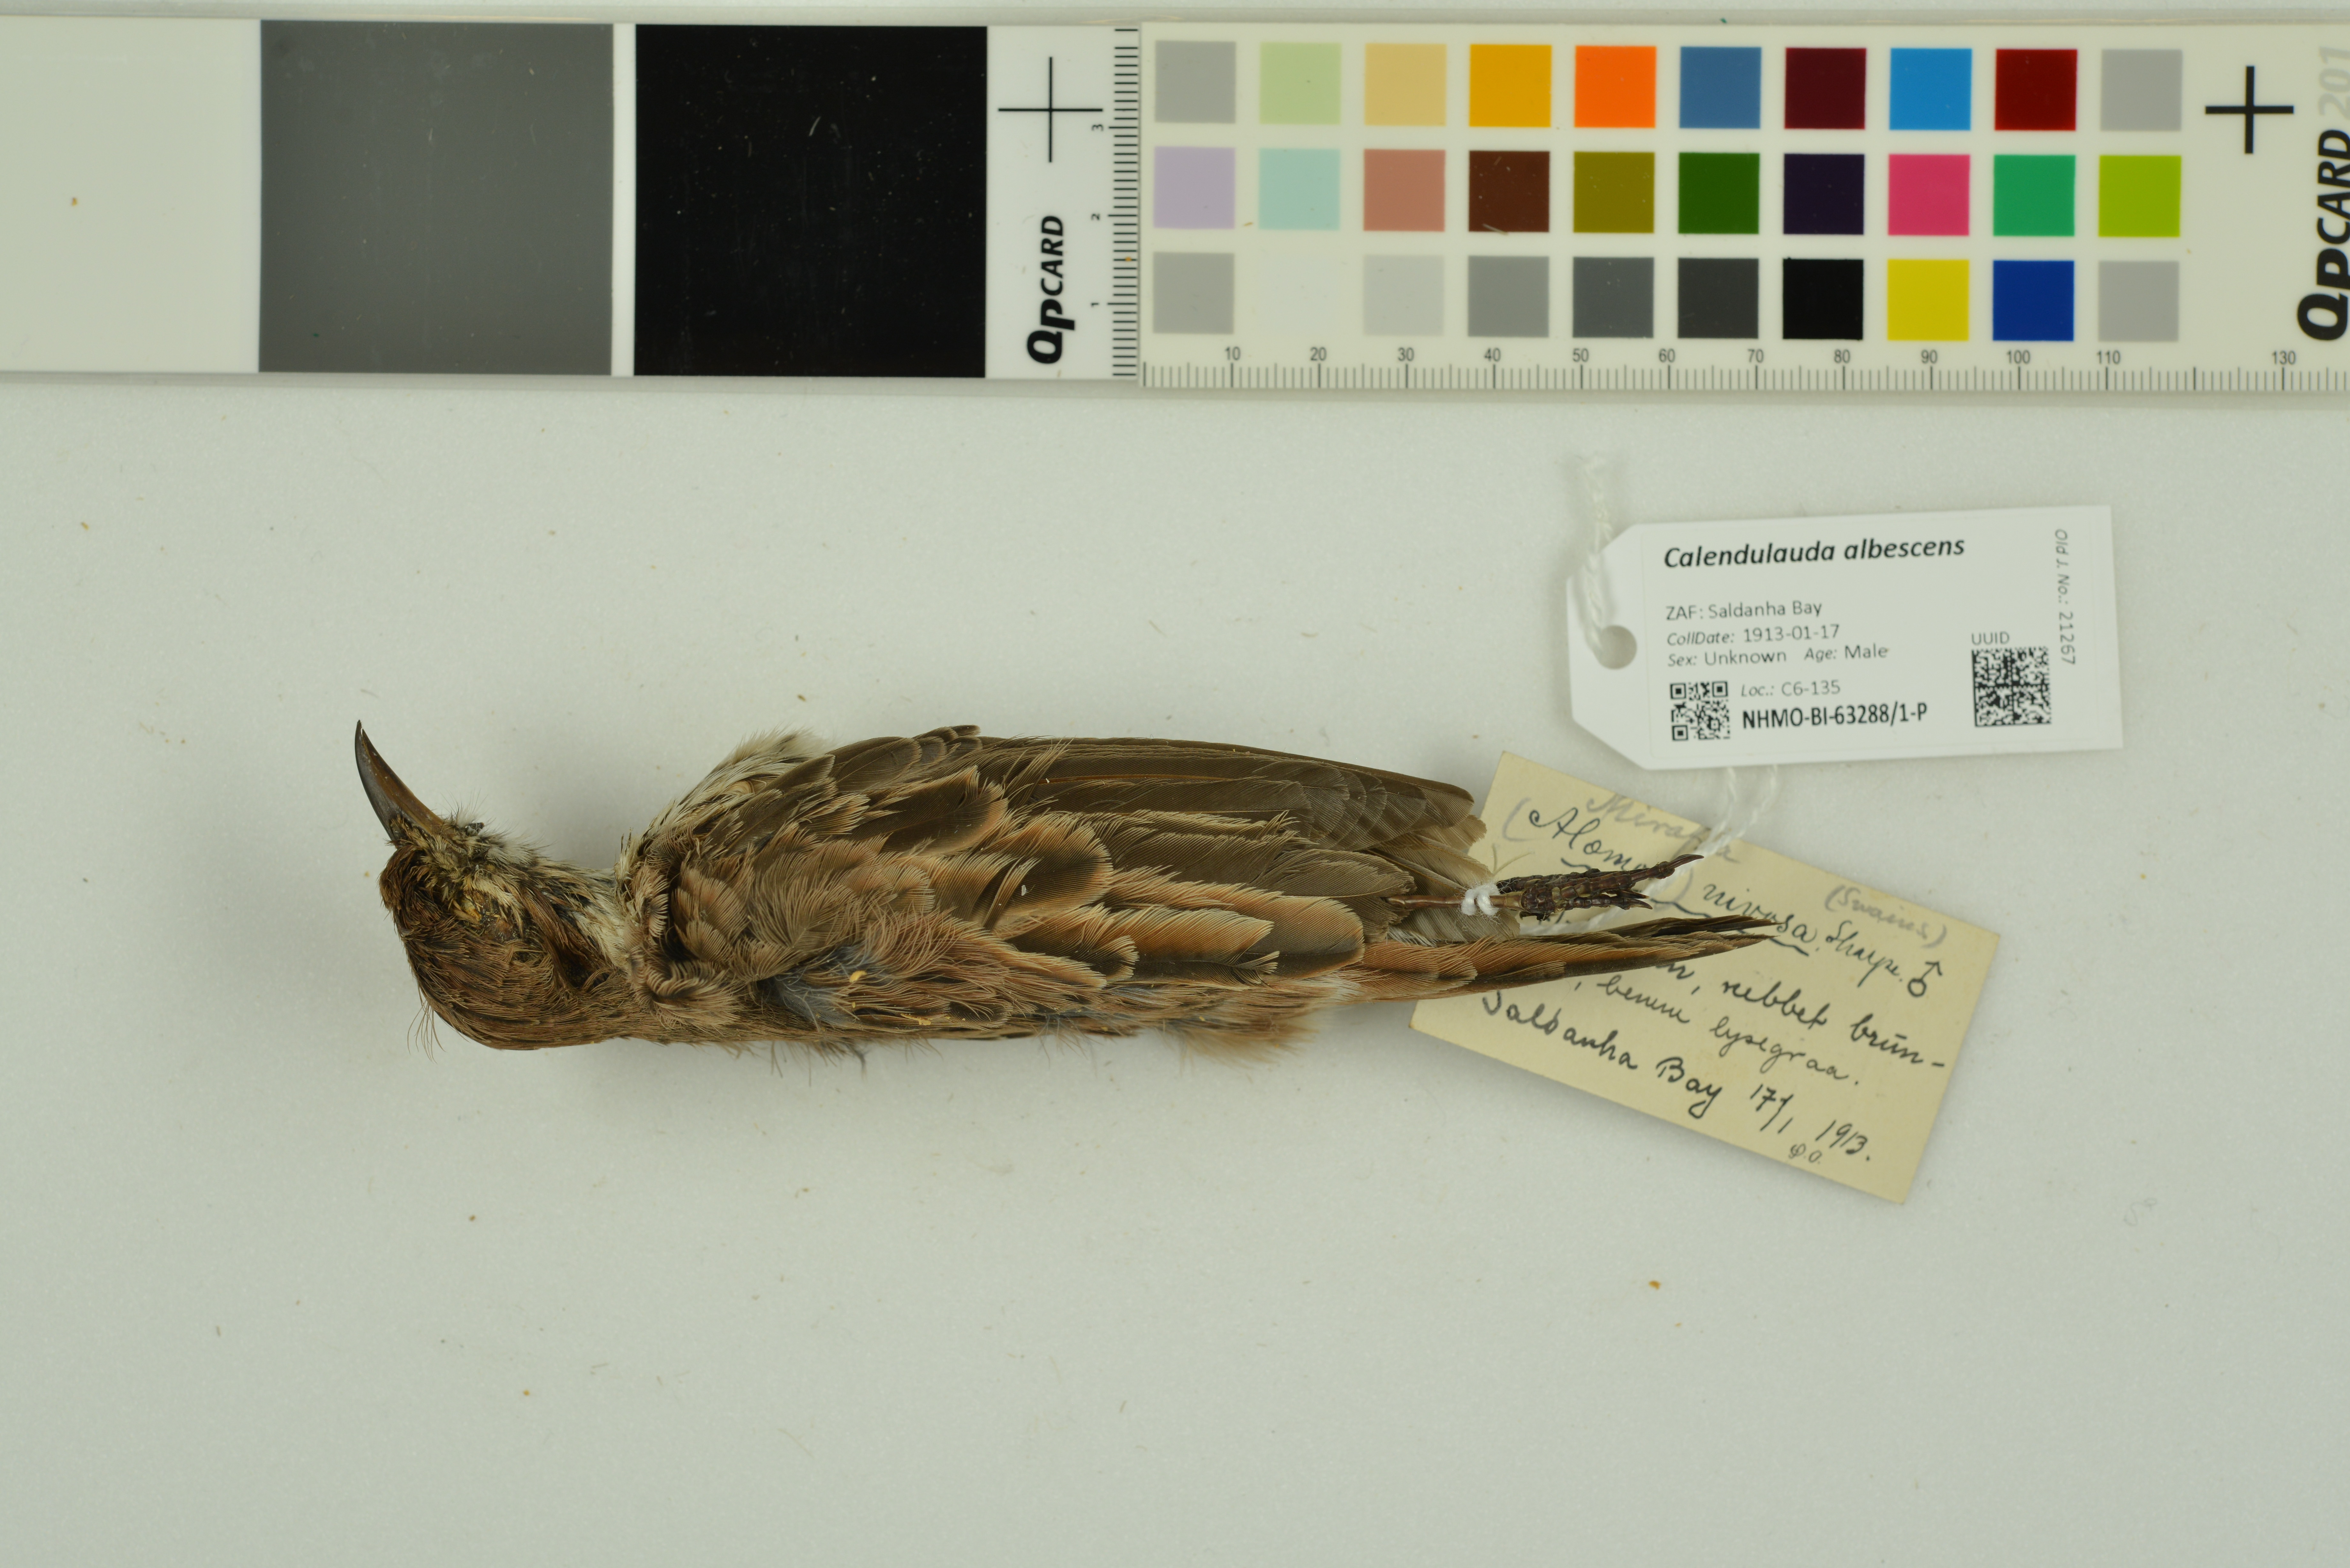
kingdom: Animalia
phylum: Chordata
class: Aves
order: Passeriformes
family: Alaudidae
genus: Calendulauda
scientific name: Calendulauda albescens
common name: Karoo lark
